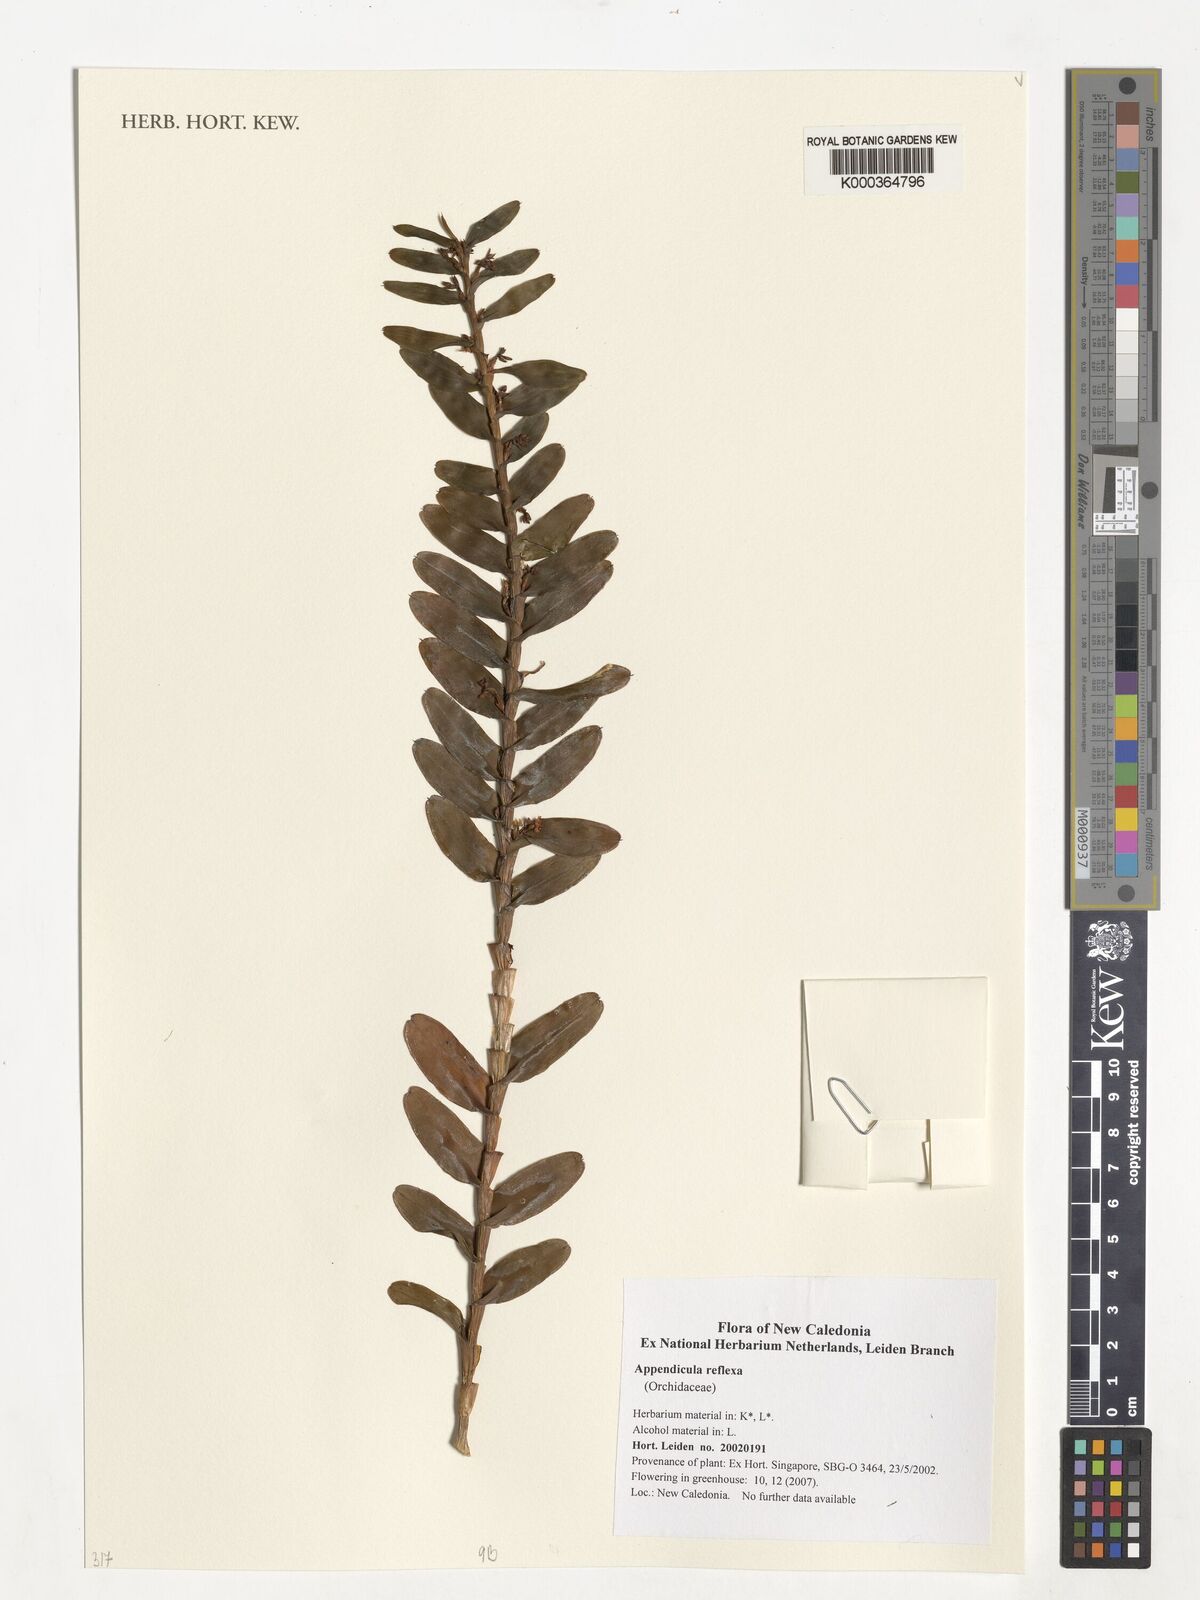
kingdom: Plantae
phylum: Tracheophyta
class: Liliopsida
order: Asparagales
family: Orchidaceae
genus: Appendicula
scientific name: Appendicula reflexa
